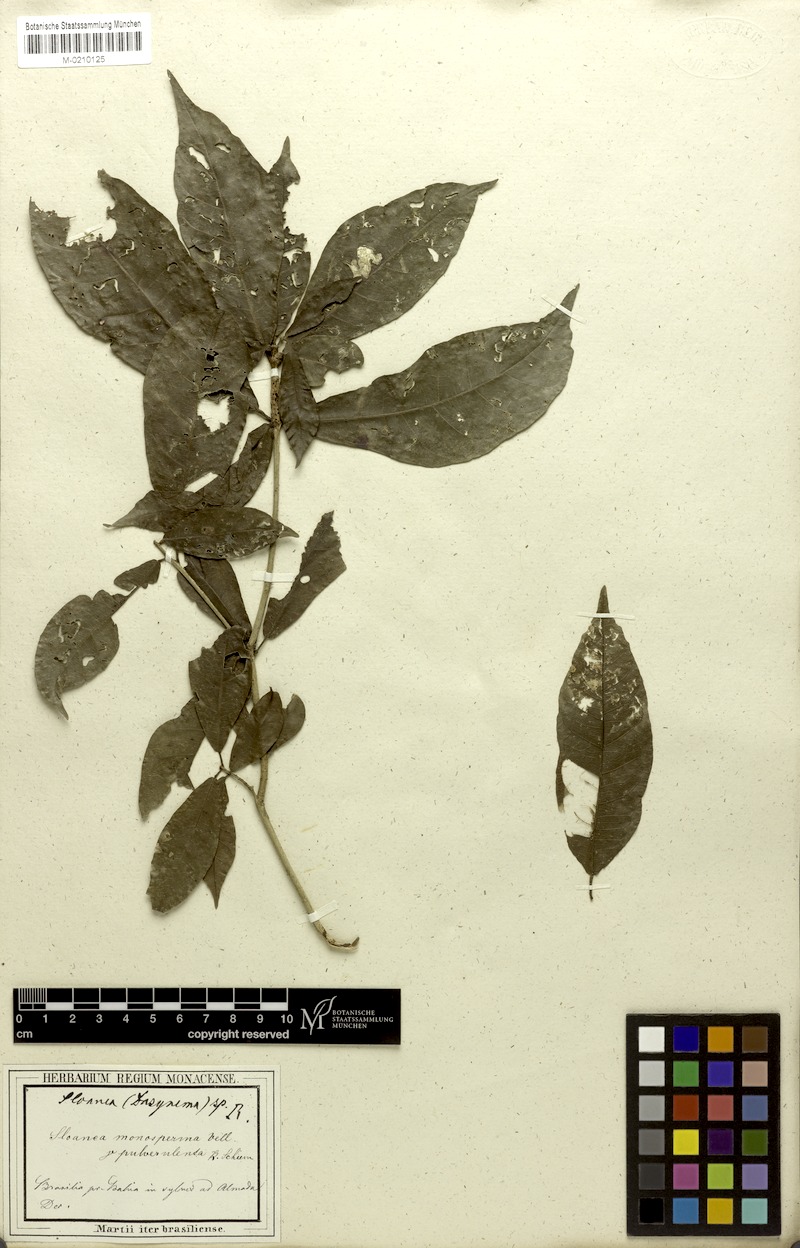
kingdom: Plantae
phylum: Tracheophyta
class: Magnoliopsida
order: Oxalidales
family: Elaeocarpaceae
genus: Sloanea
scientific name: Sloanea hirsuta
